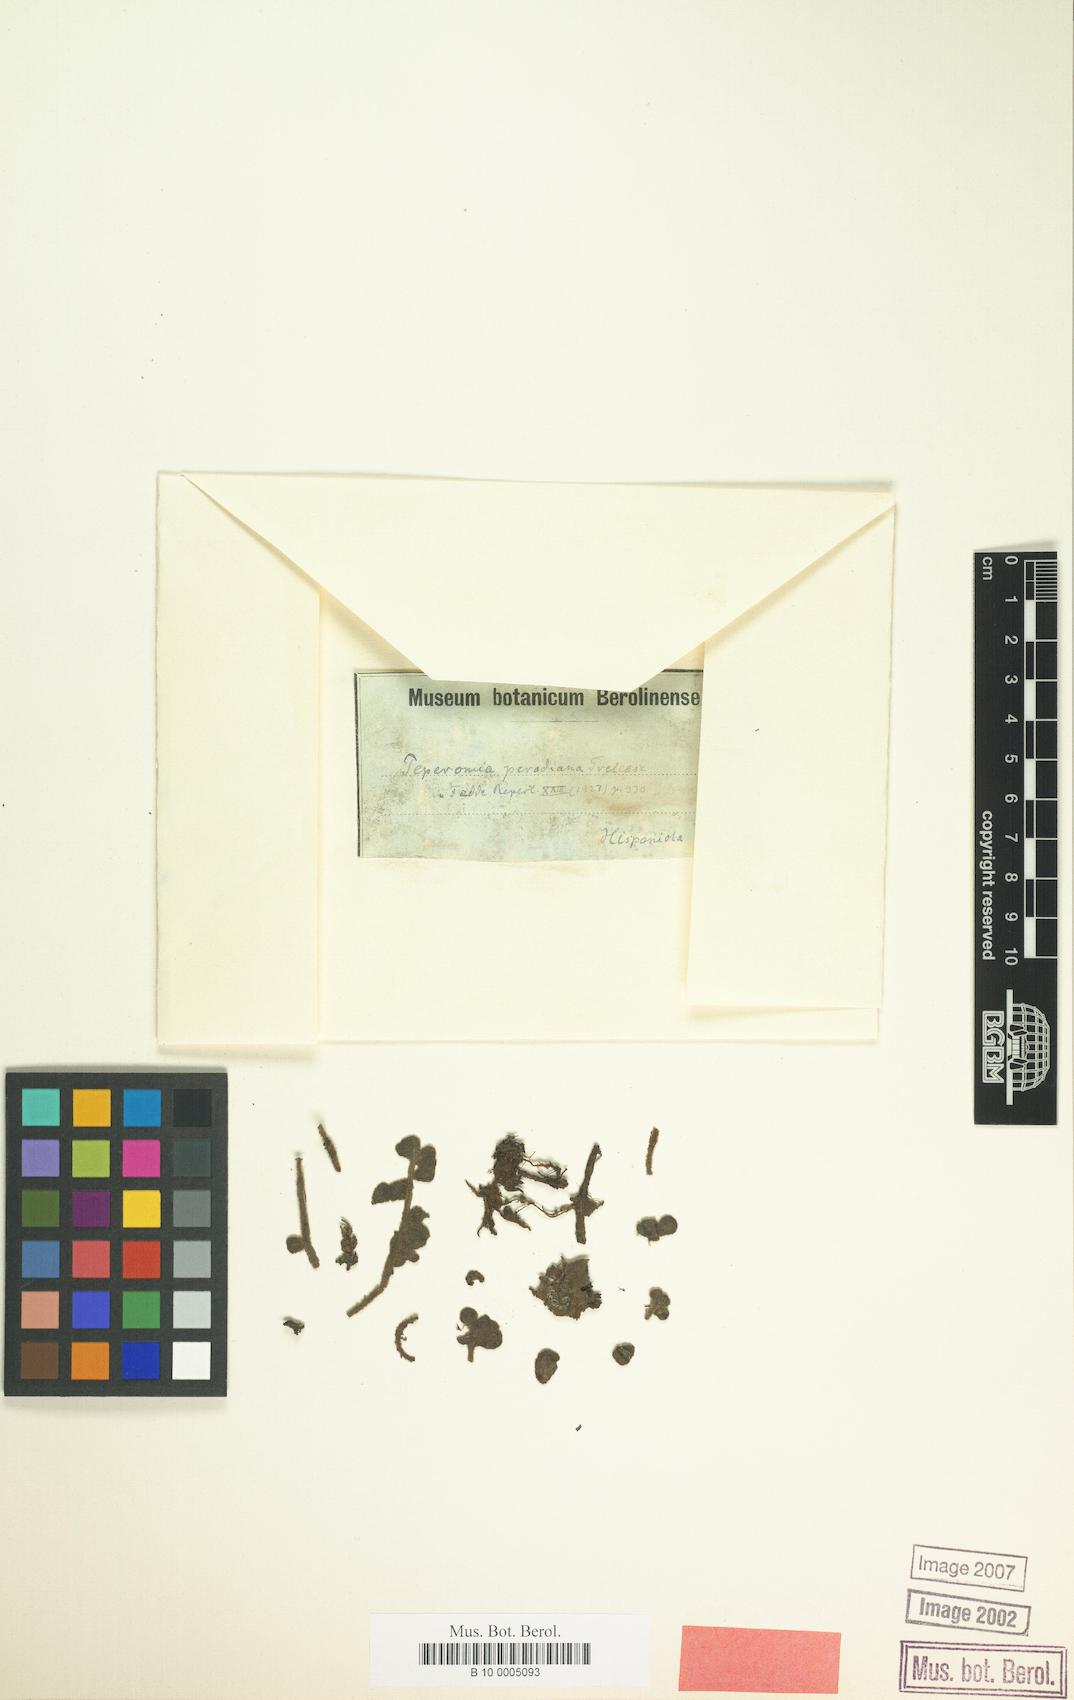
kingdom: Plantae
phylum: Tracheophyta
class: Magnoliopsida
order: Piperales
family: Piperaceae
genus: Peperomia
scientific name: Peperomia perodiniana
